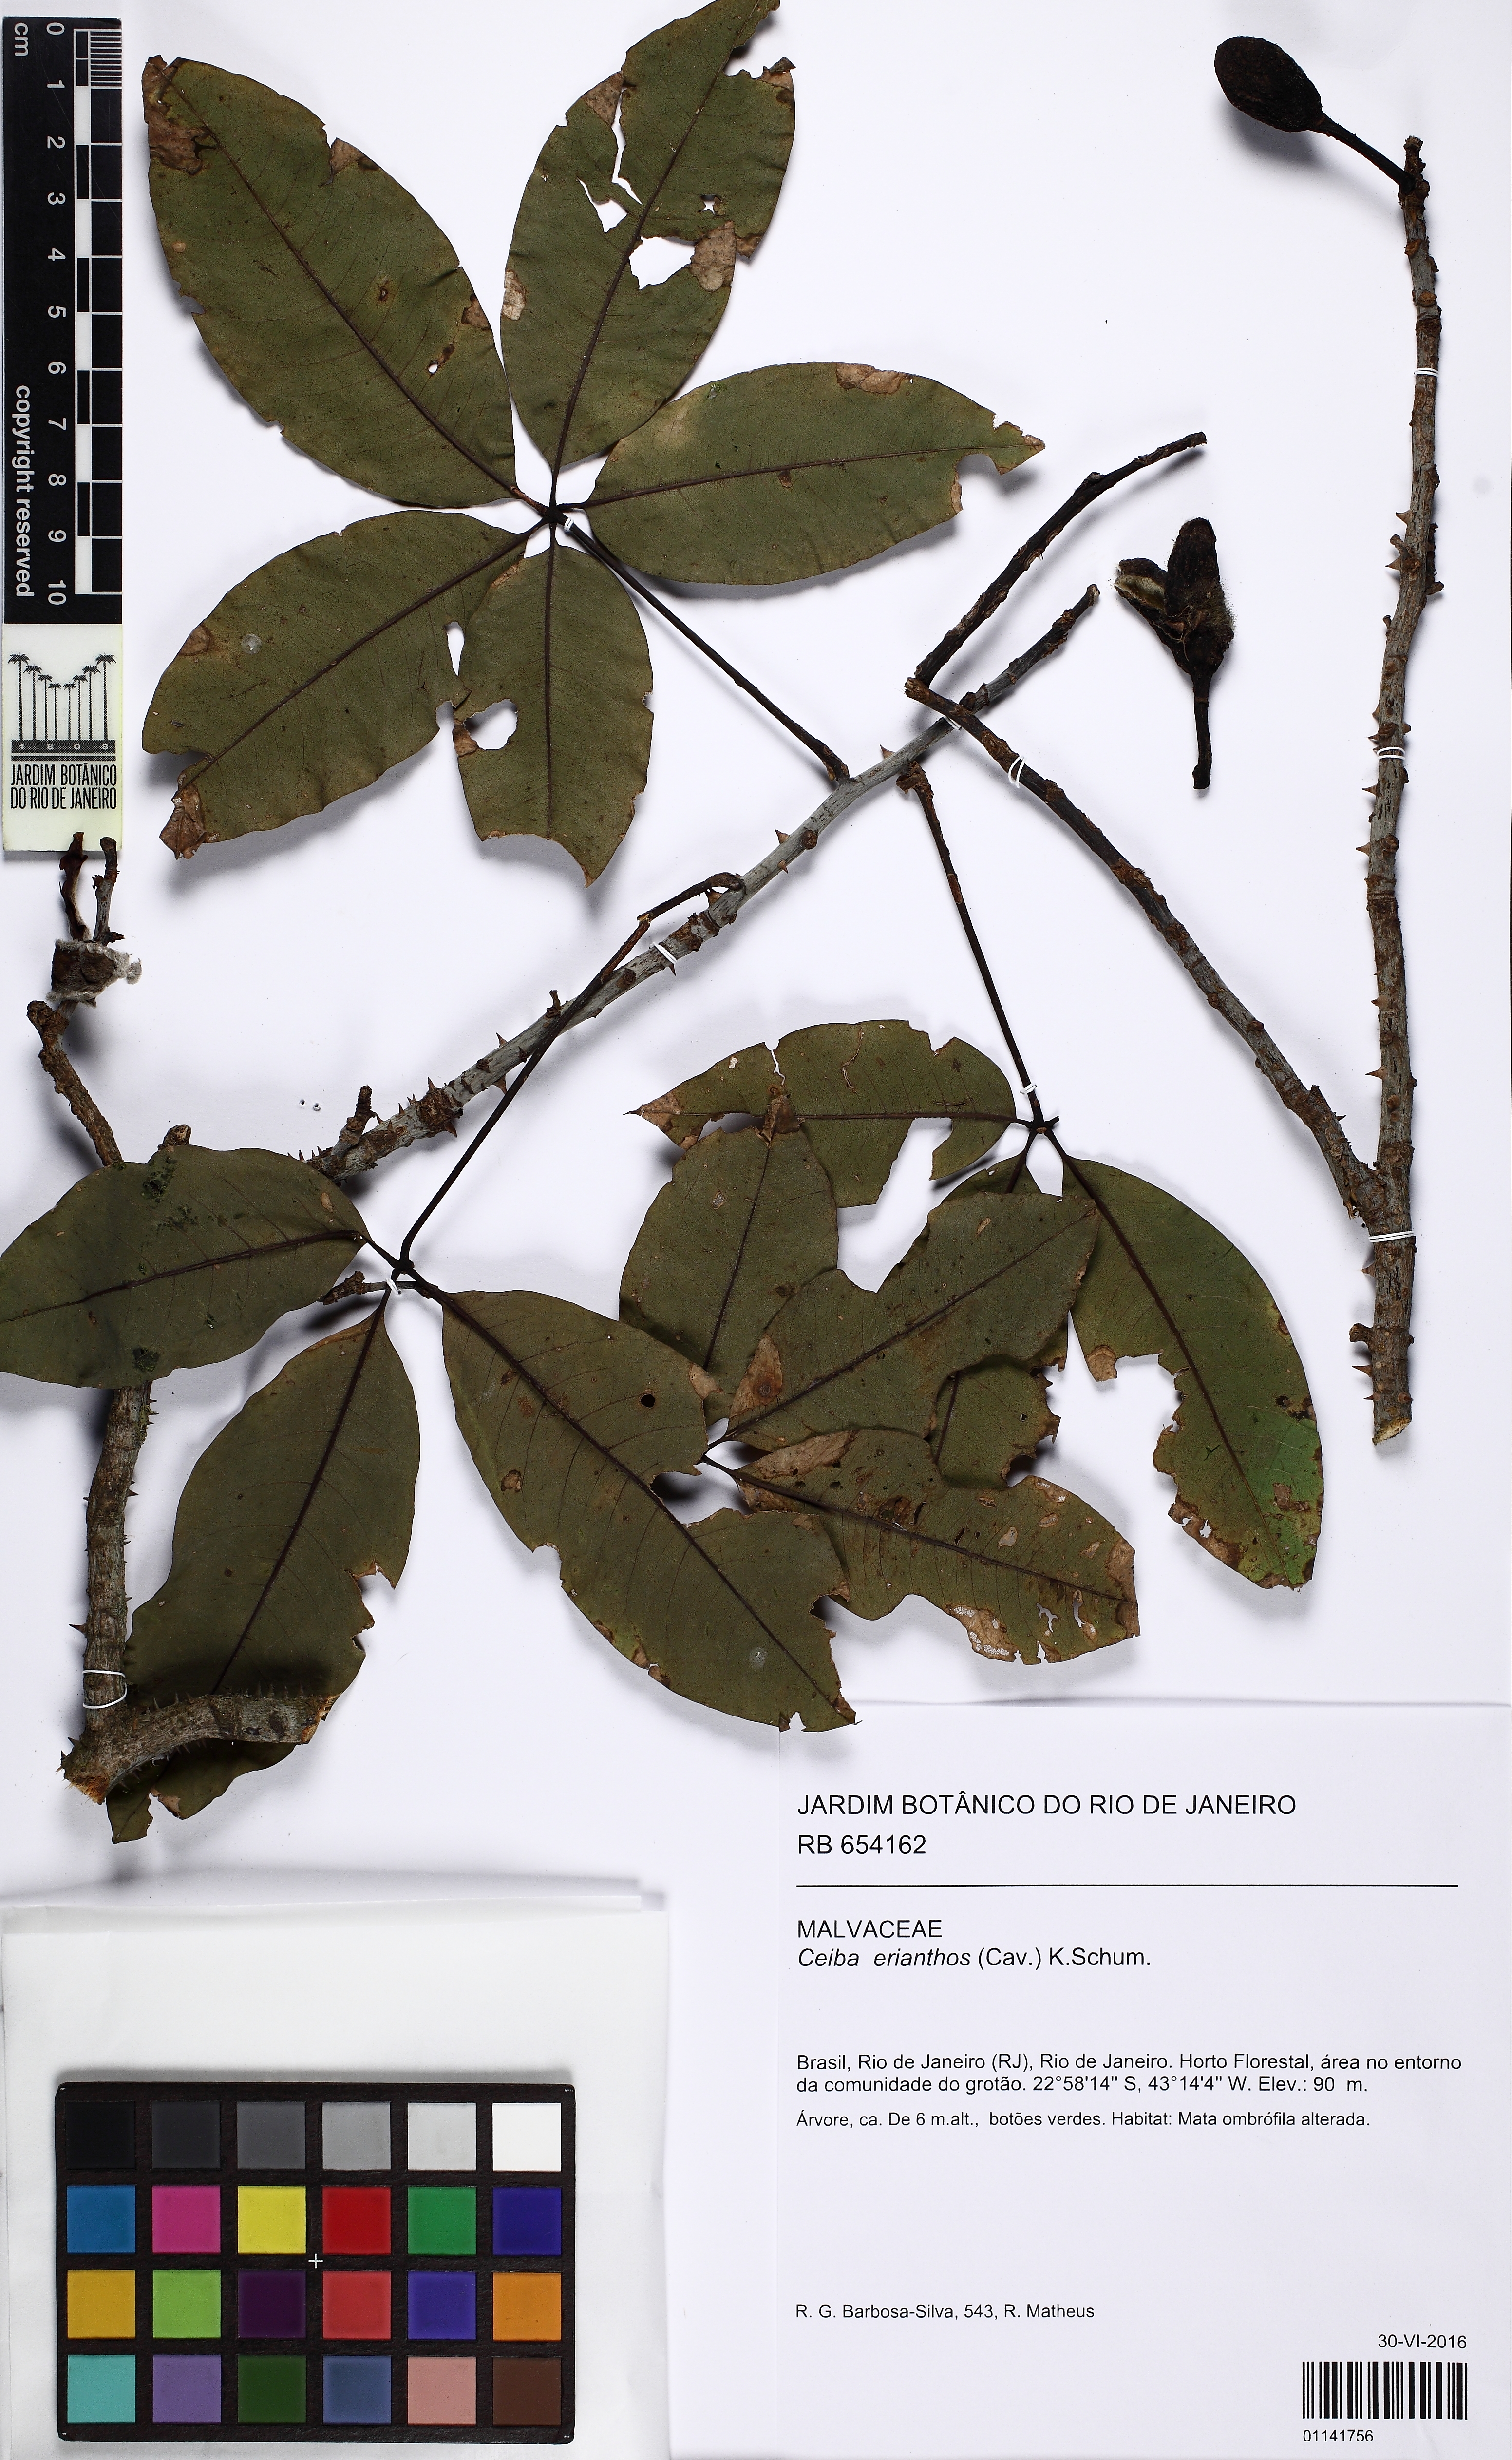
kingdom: Plantae
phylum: Tracheophyta
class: Magnoliopsida
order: Malvales
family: Malvaceae
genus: Ceiba
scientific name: Ceiba erianthos
